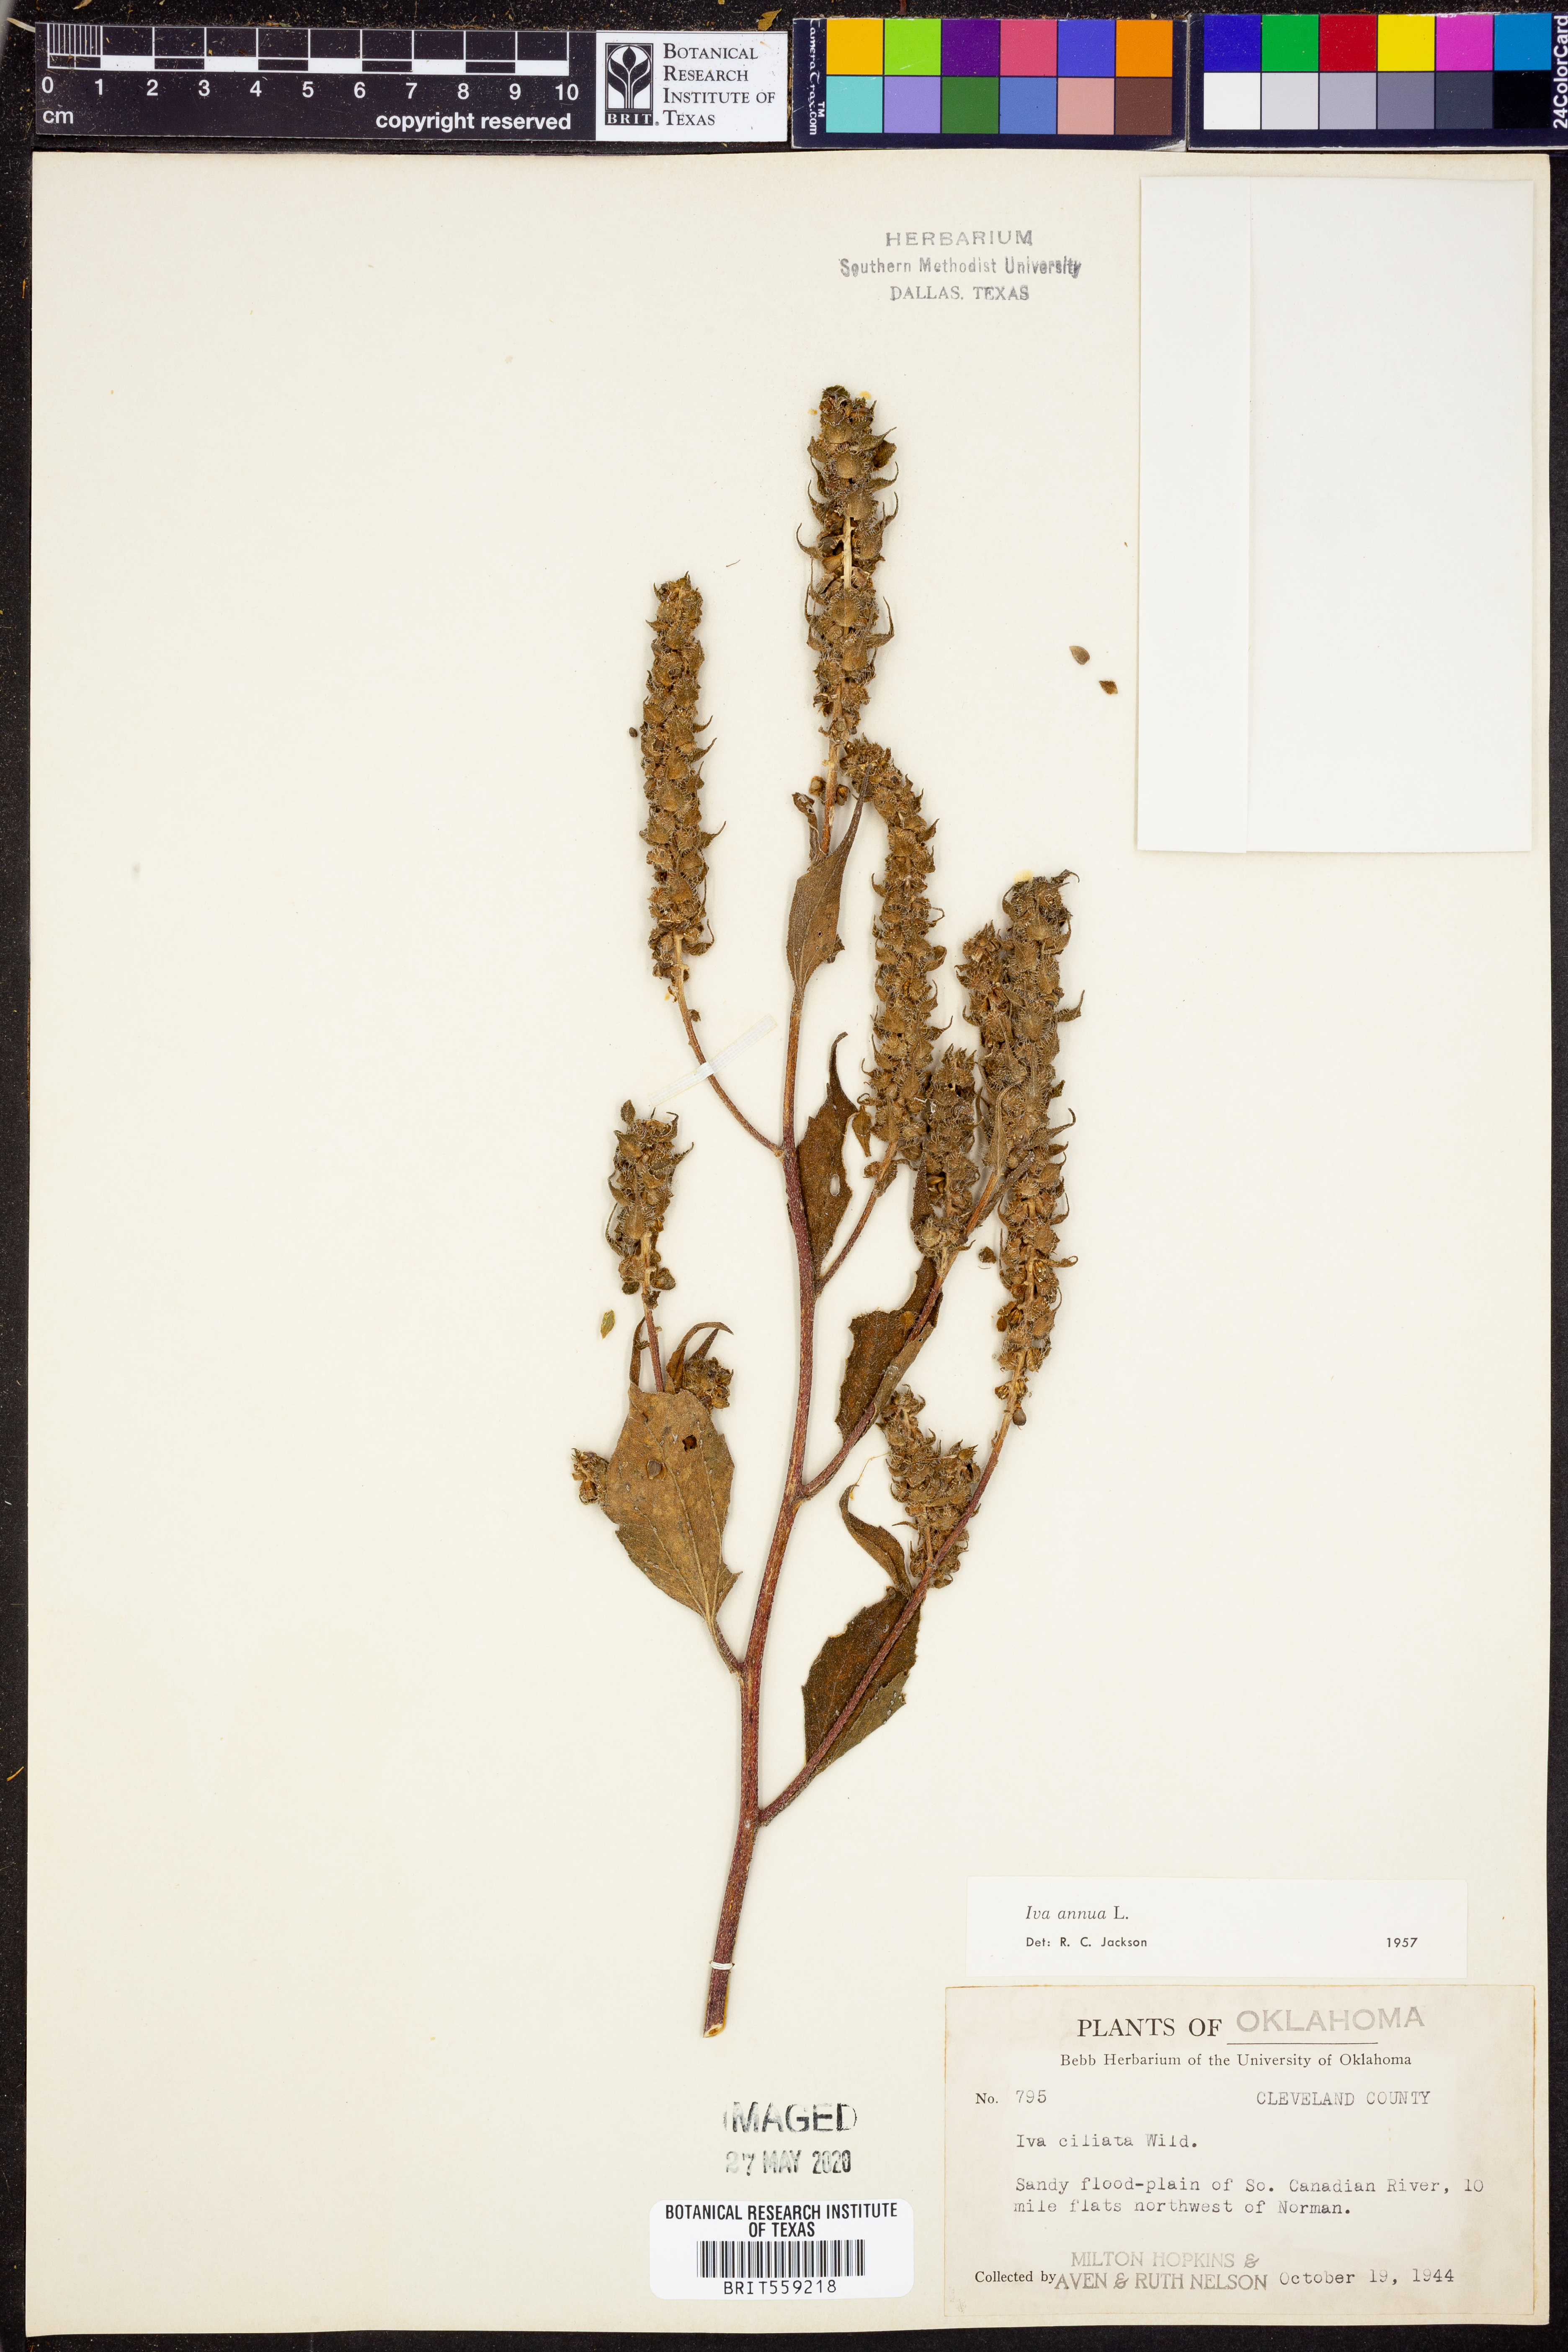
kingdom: Plantae
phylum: Tracheophyta
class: Magnoliopsida
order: Asterales
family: Asteraceae
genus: Iva
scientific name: Iva annua
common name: Marsh-elder
